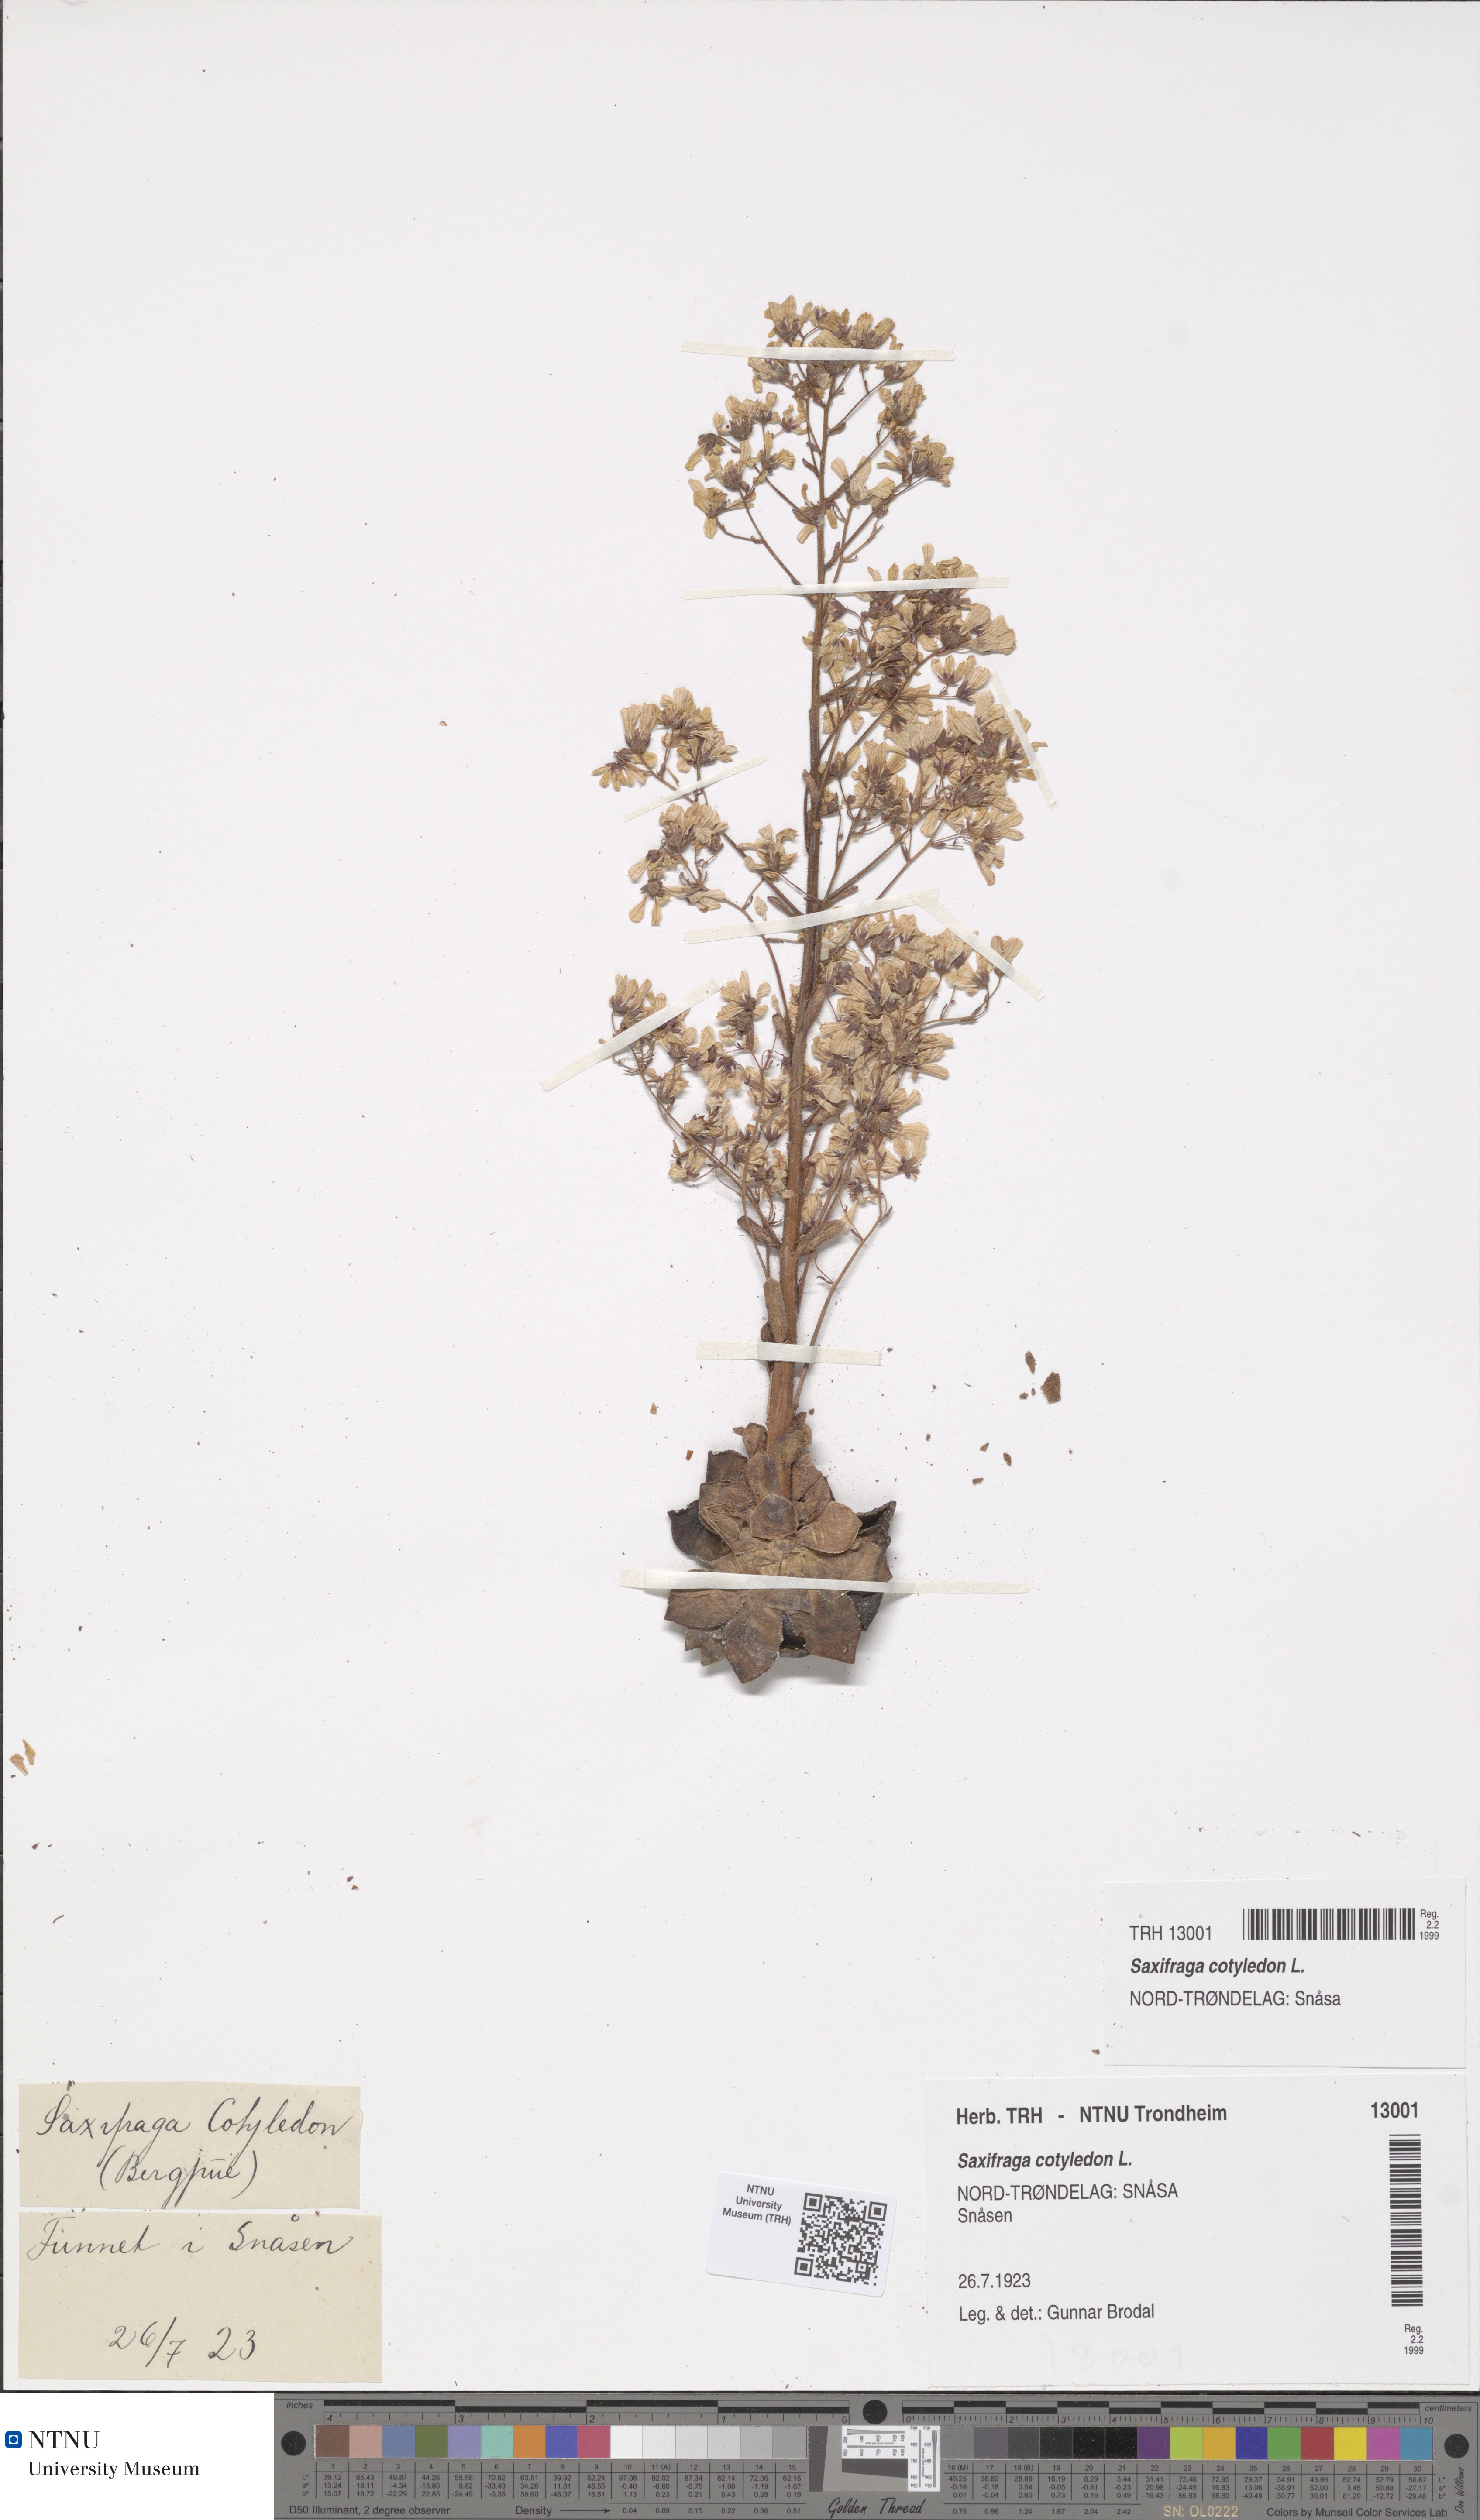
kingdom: Plantae
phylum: Tracheophyta
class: Magnoliopsida
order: Saxifragales
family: Saxifragaceae
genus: Saxifraga
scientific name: Saxifraga cotyledon
